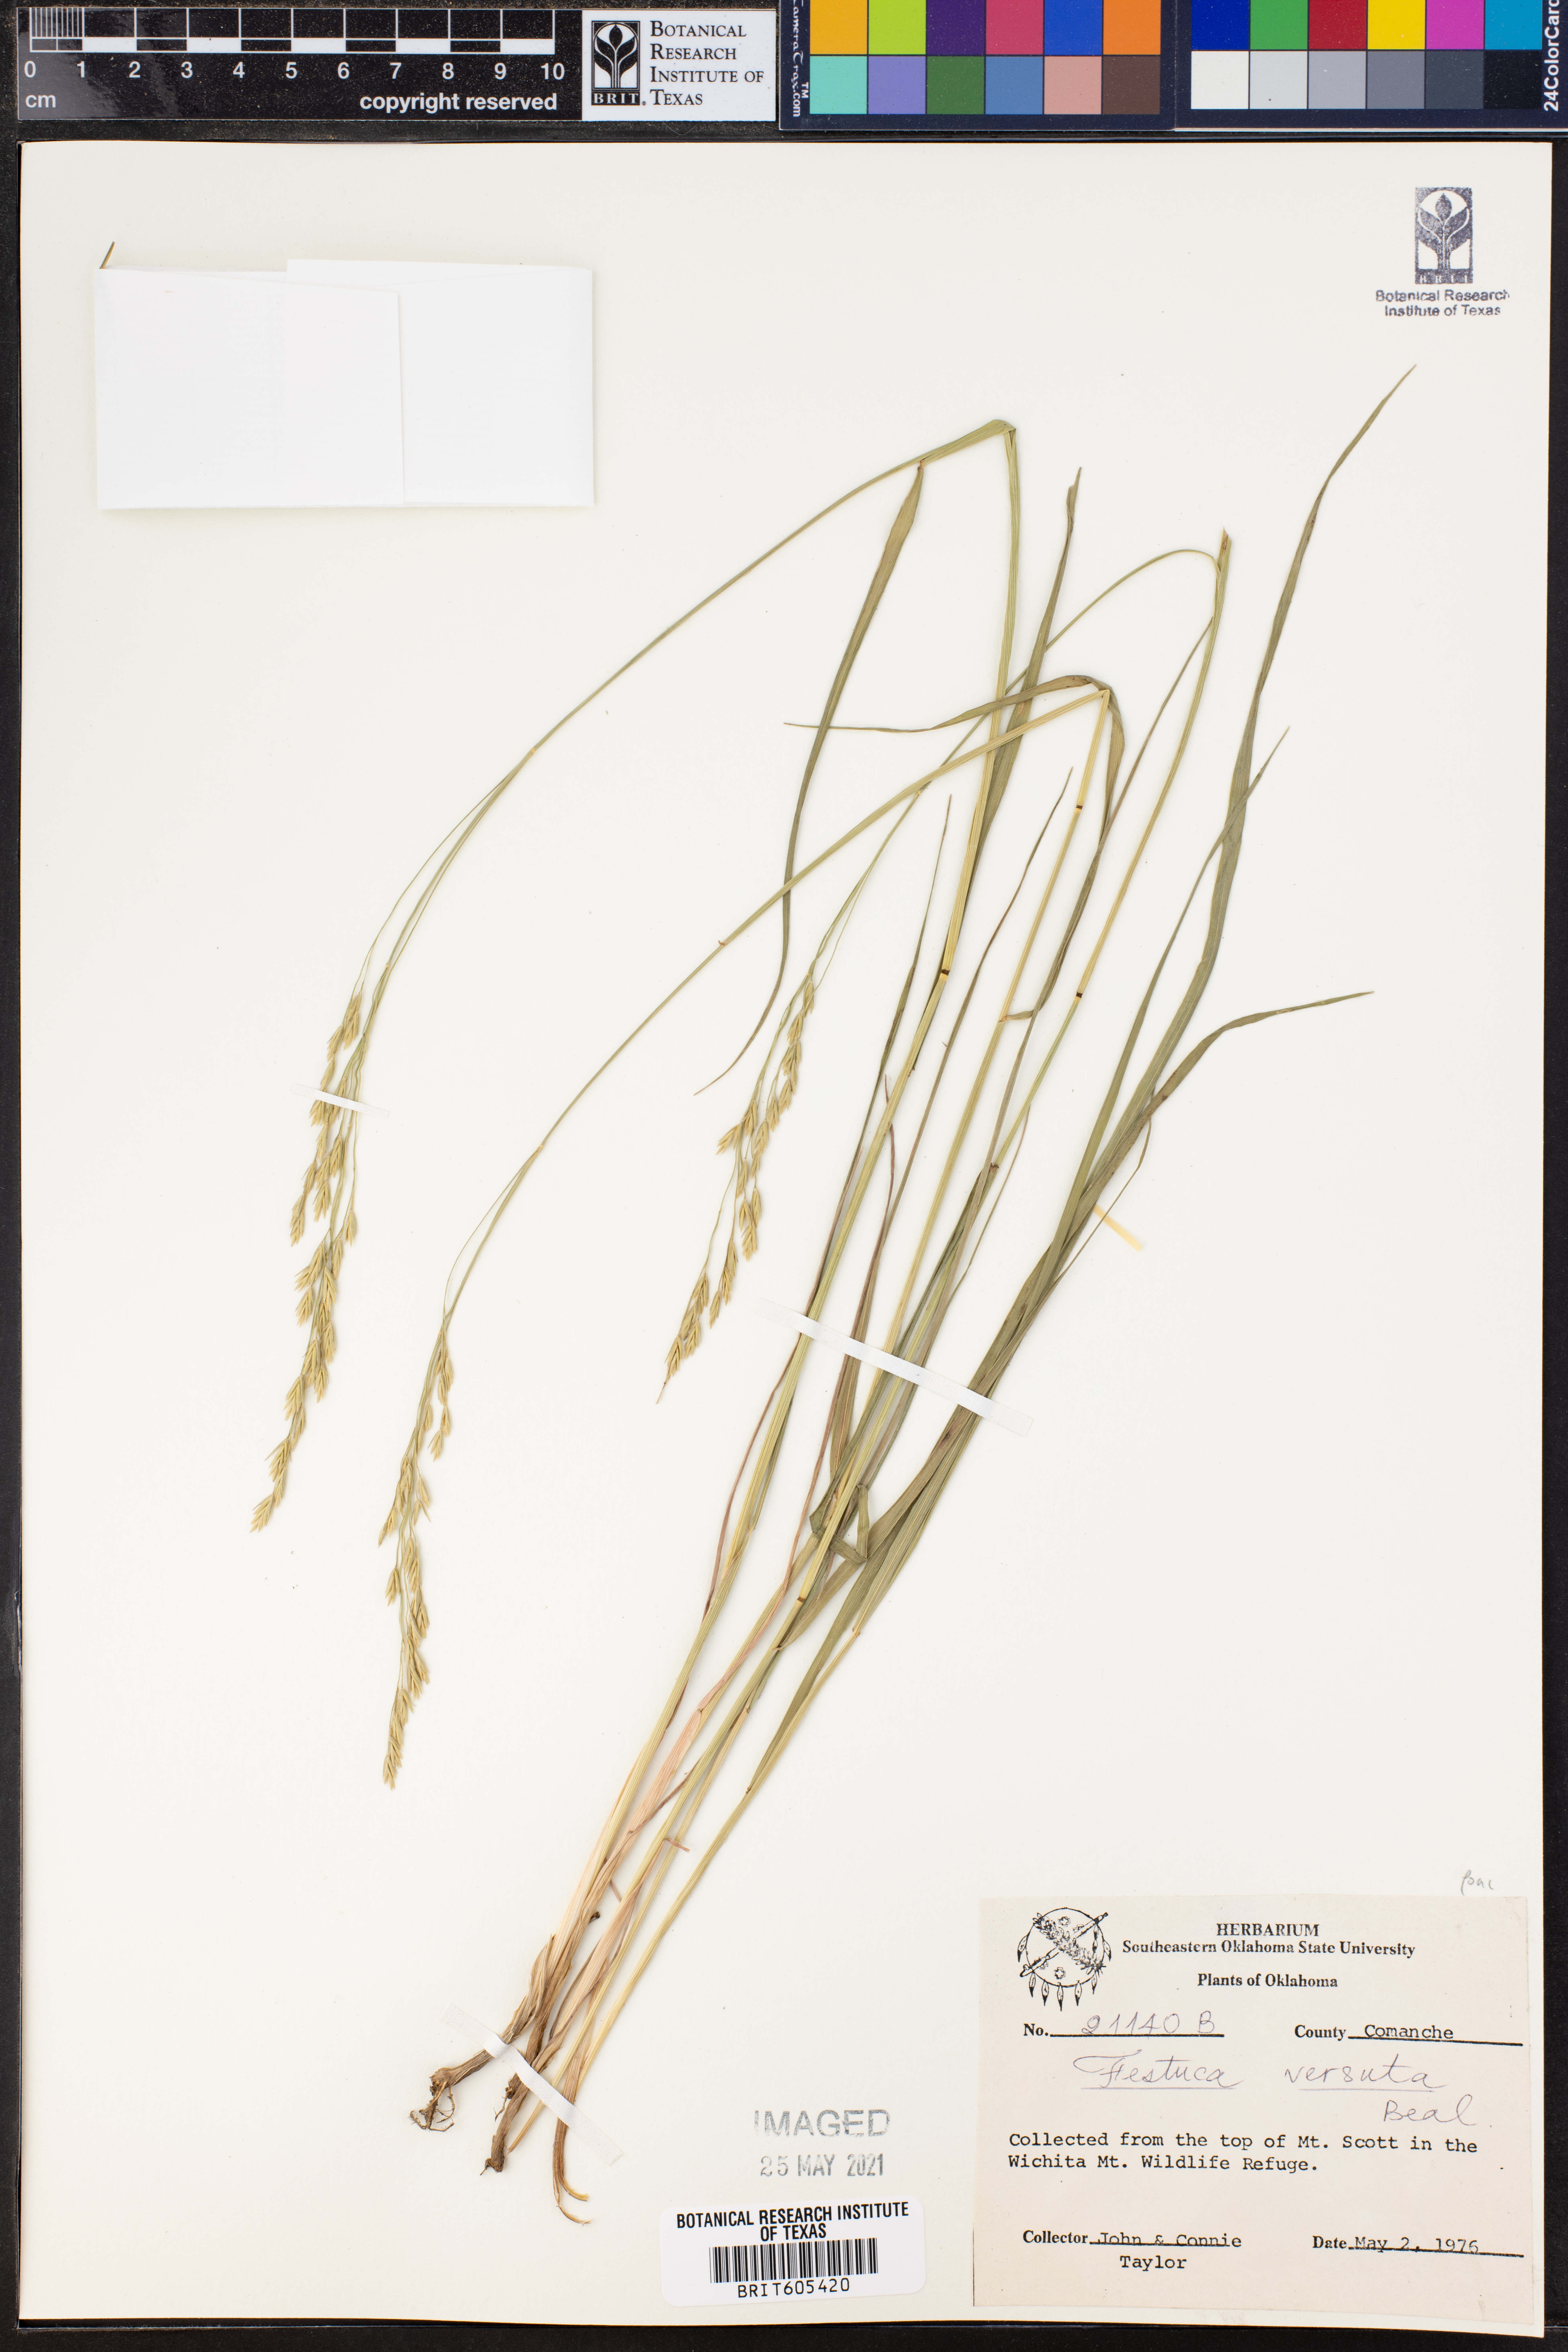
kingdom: Plantae
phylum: Tracheophyta
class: Liliopsida
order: Poales
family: Poaceae
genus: Festuca
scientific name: Festuca versuta
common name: Texas fescue
